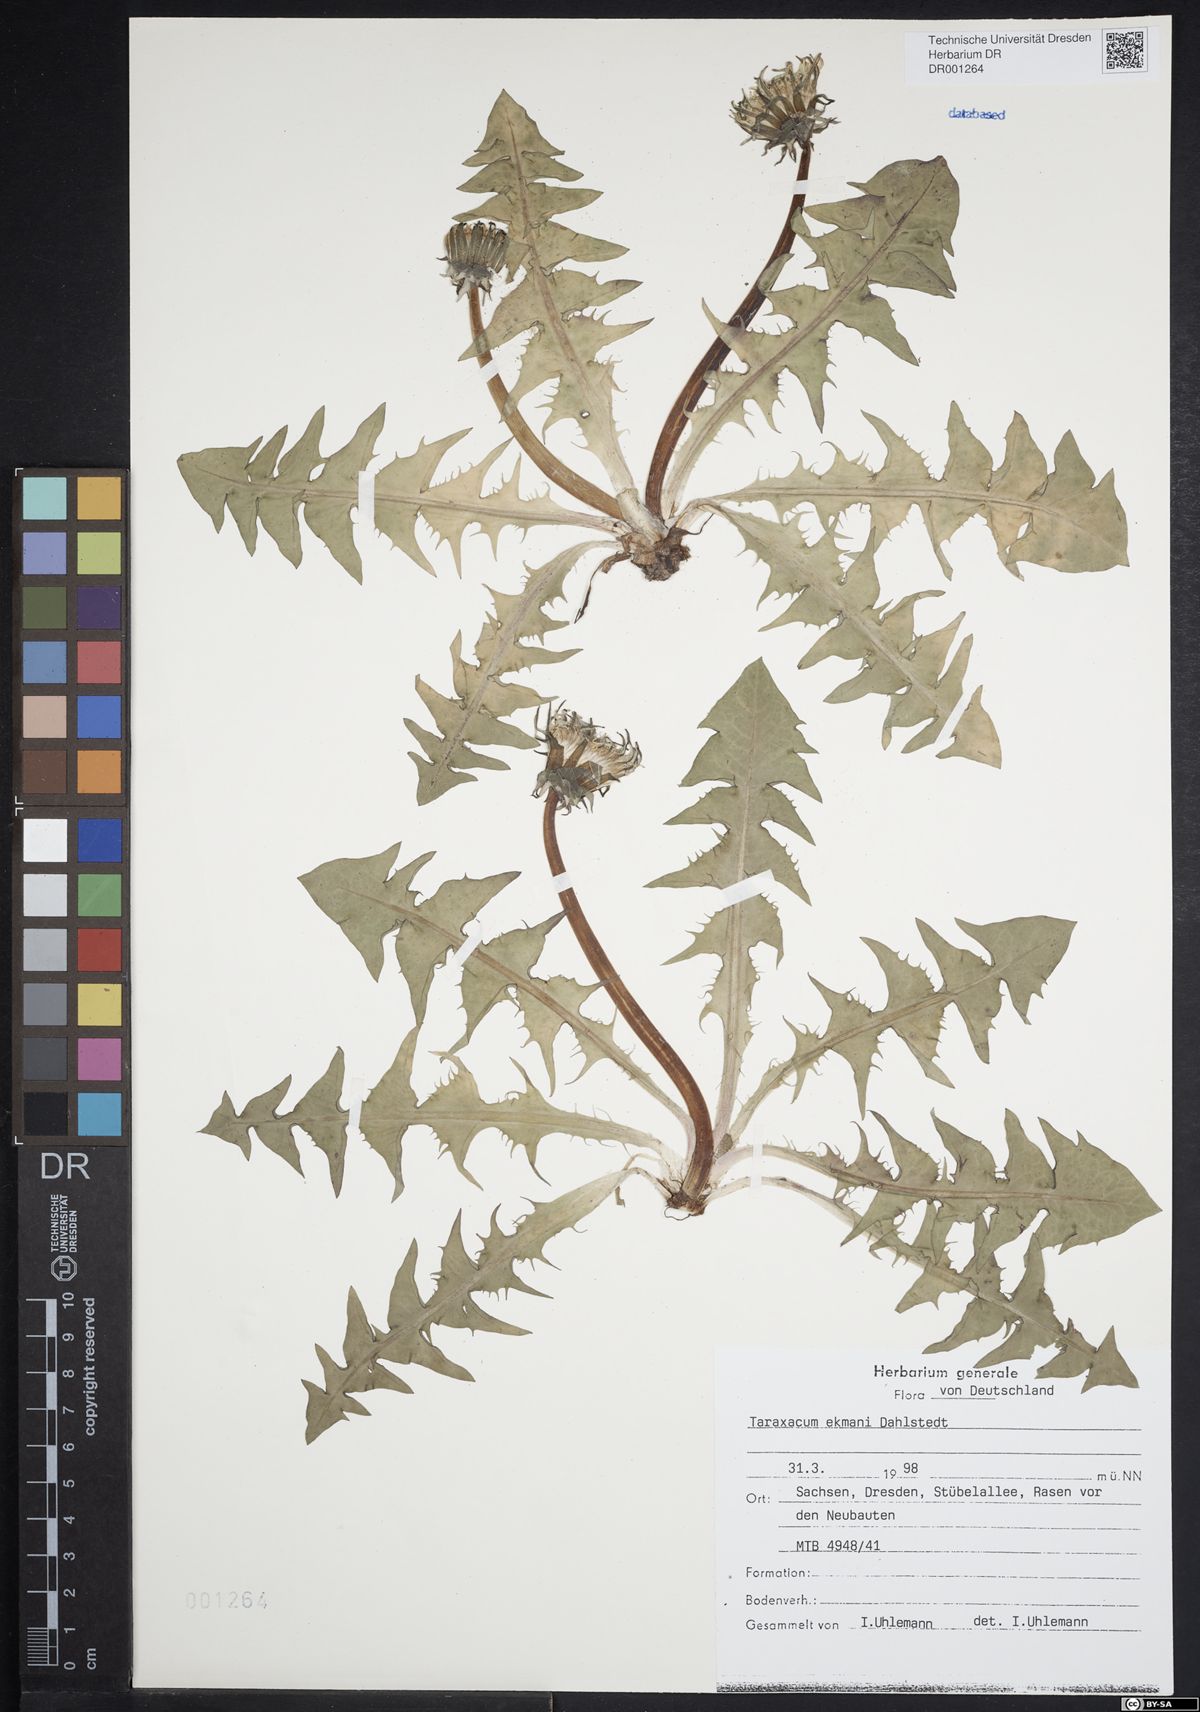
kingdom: Plantae
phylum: Tracheophyta
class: Magnoliopsida
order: Asterales
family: Asteraceae
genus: Taraxacum
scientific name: Taraxacum ekmanii
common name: Ekman's dandelion
